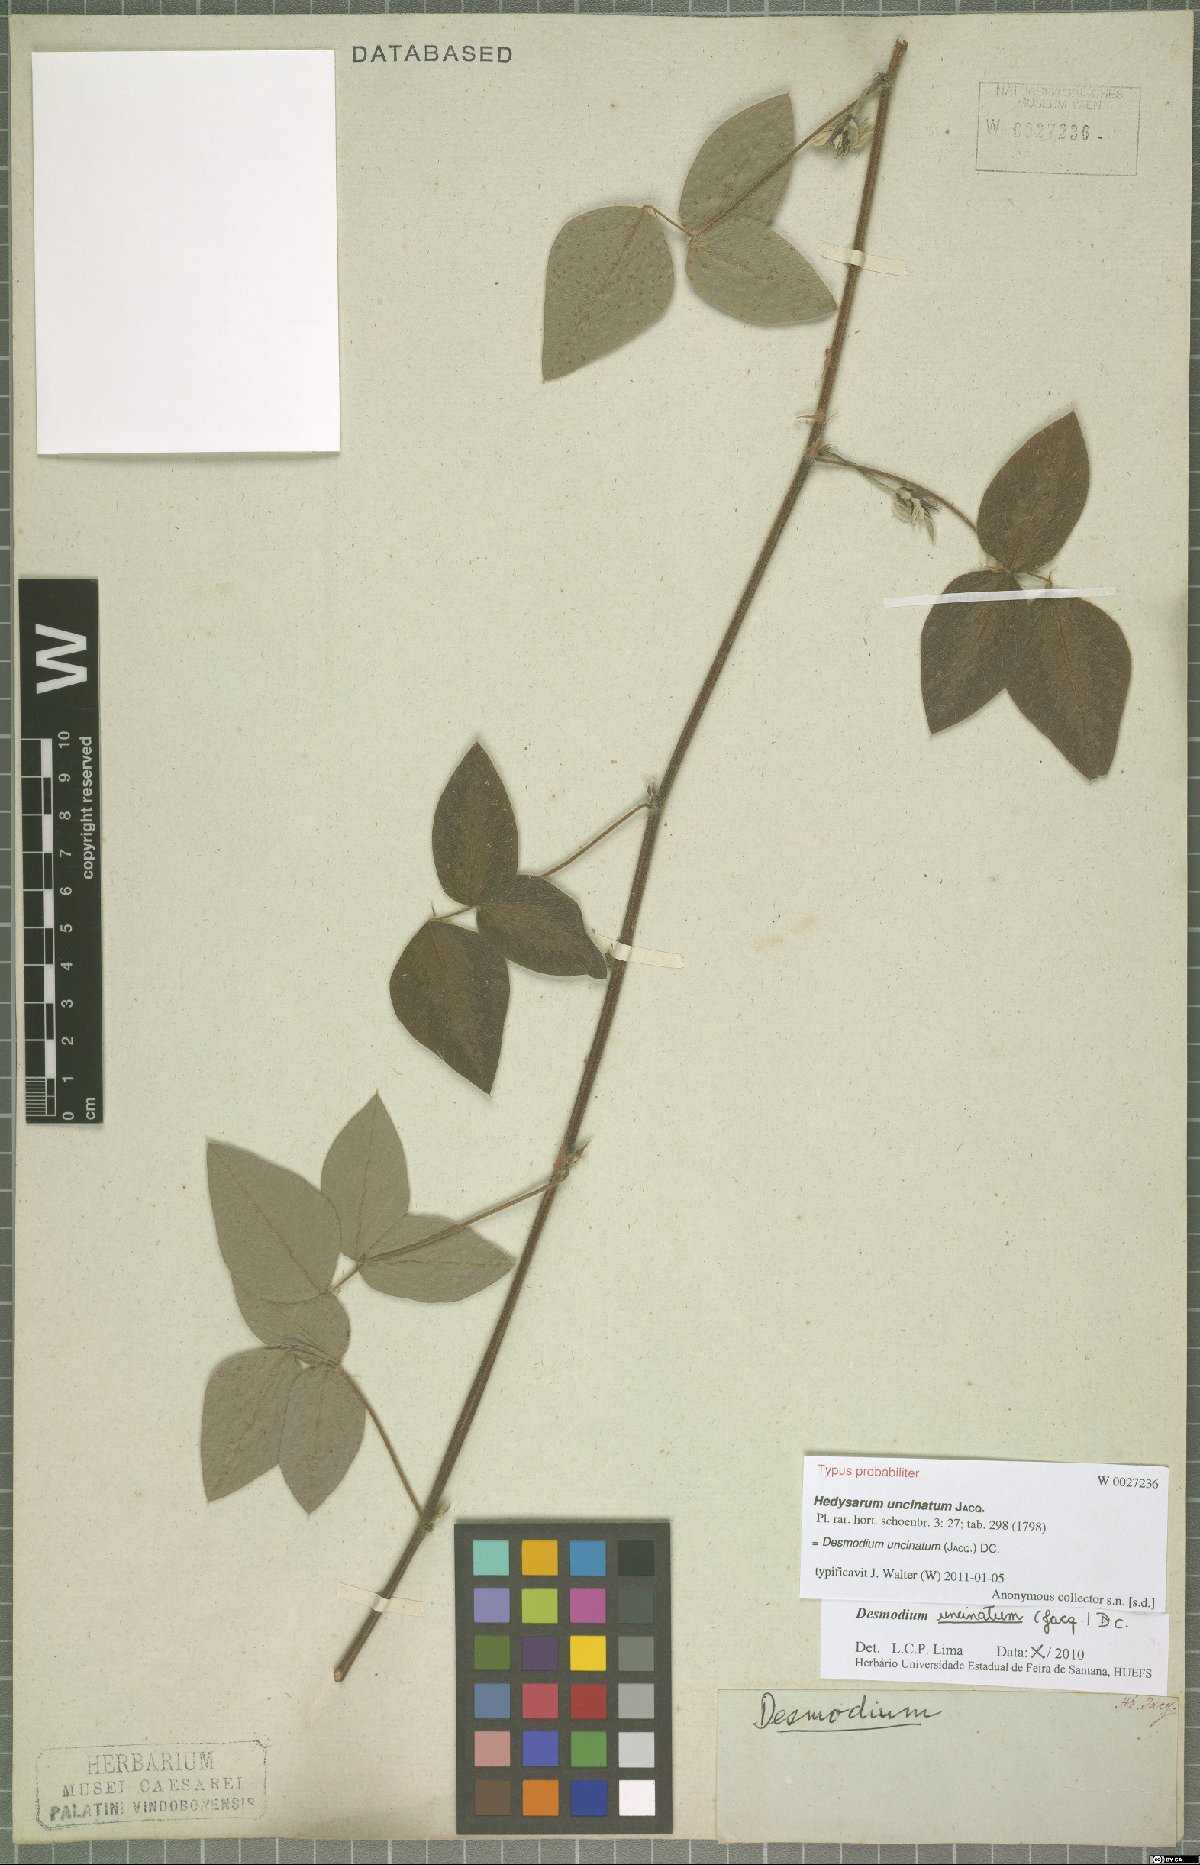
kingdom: Plantae
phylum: Tracheophyta
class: Magnoliopsida
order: Fabales
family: Fabaceae
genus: Desmodium
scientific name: Desmodium uncinatum
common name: Silverleaf desmodium
